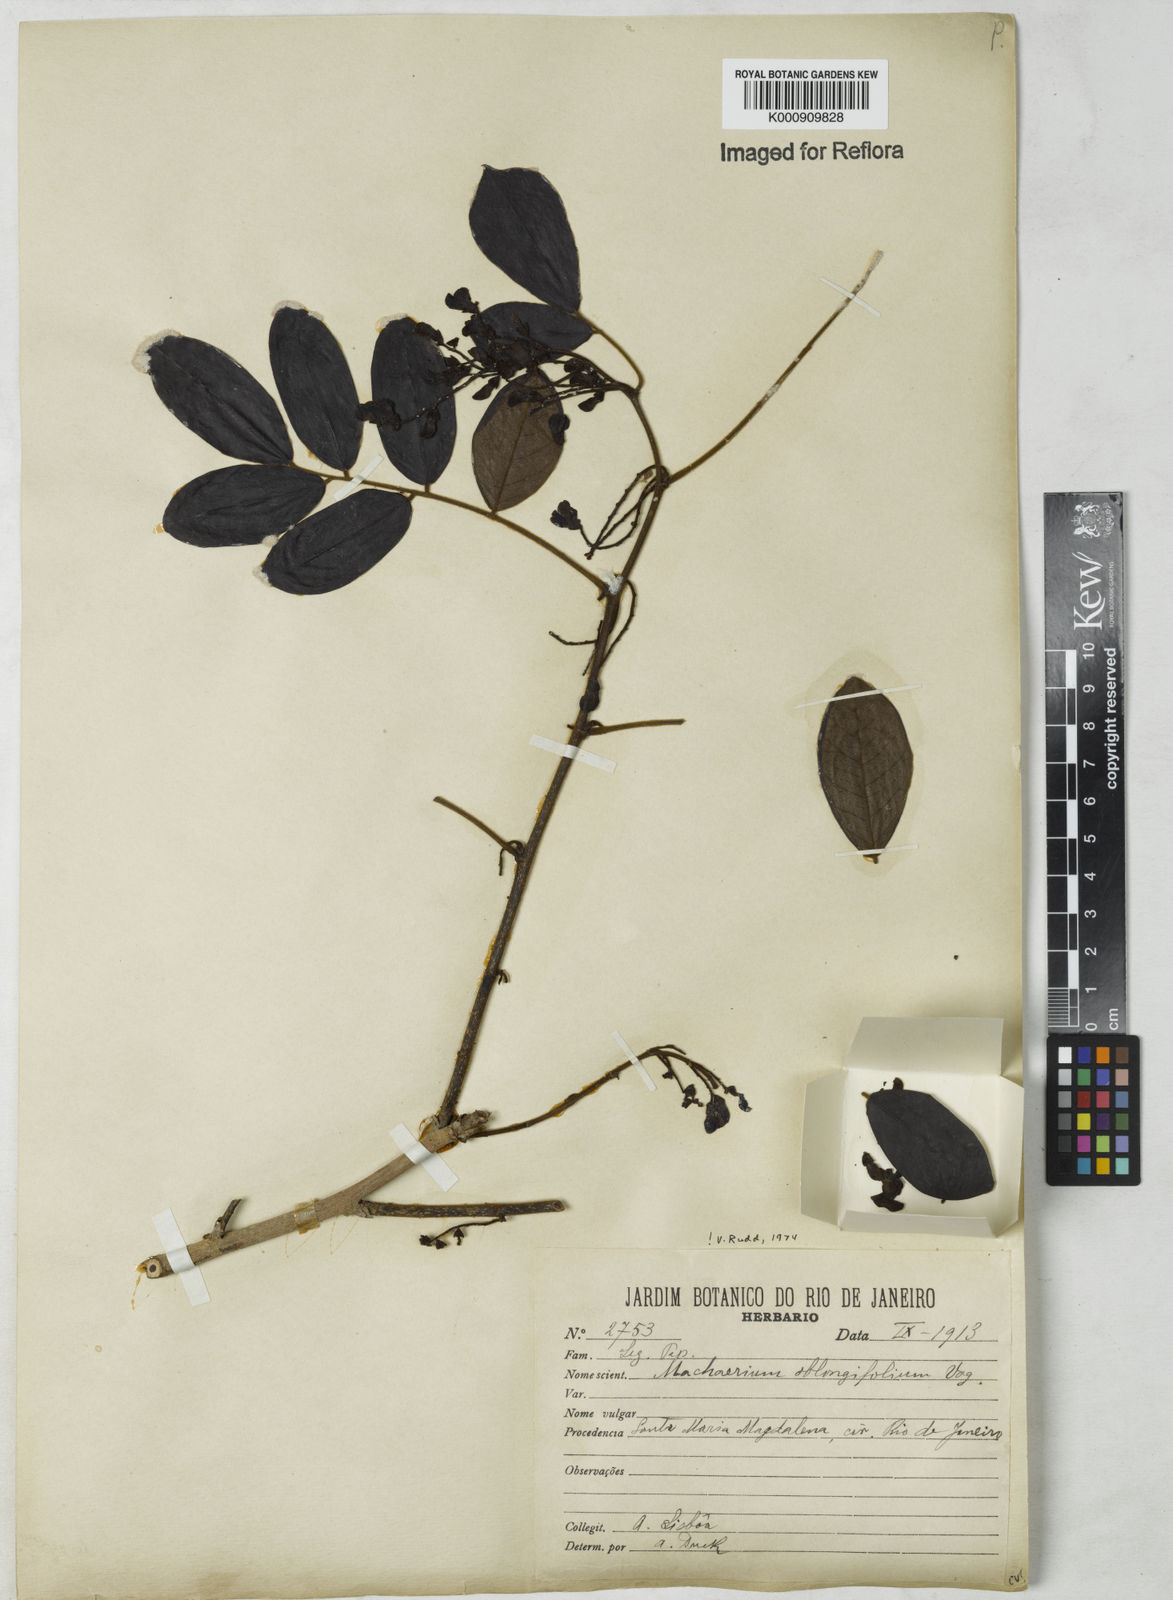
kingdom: Plantae
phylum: Tracheophyta
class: Magnoliopsida
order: Fabales
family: Fabaceae
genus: Machaerium
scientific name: Machaerium oblongifolium
